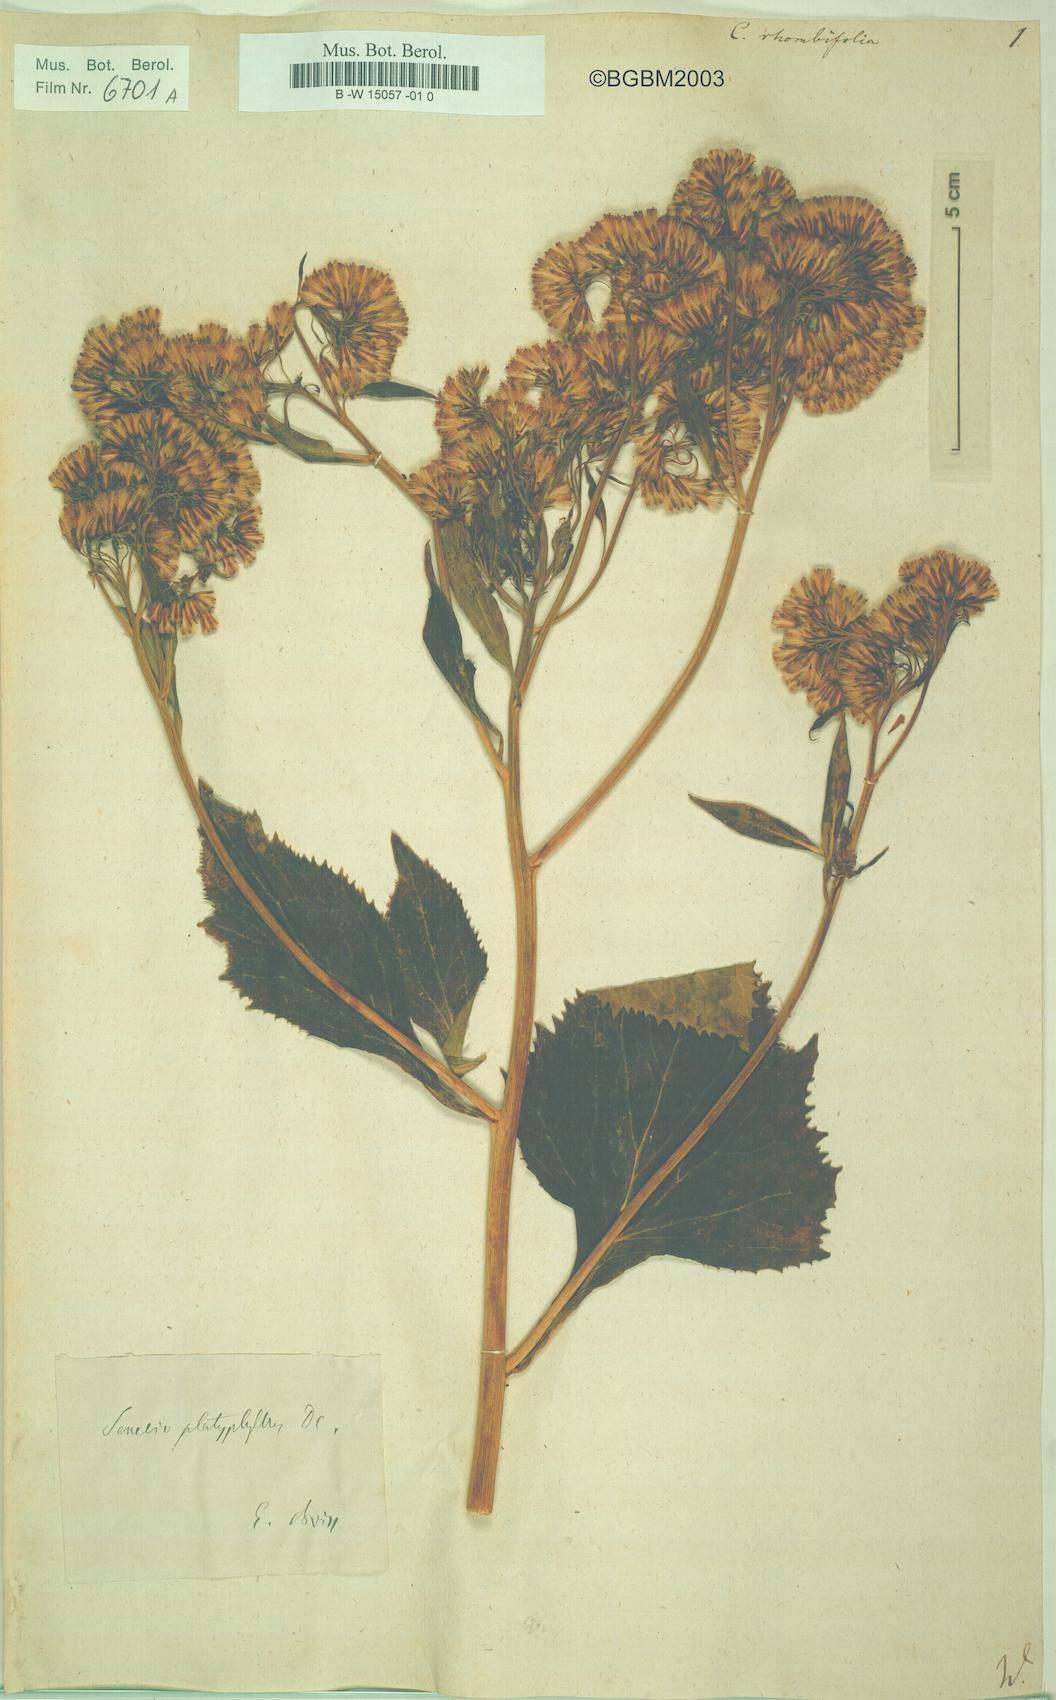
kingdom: Plantae
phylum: Tracheophyta
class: Magnoliopsida
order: Asterales
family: Asteraceae
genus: Caucasalia
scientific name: Caucasalia macrophylla
